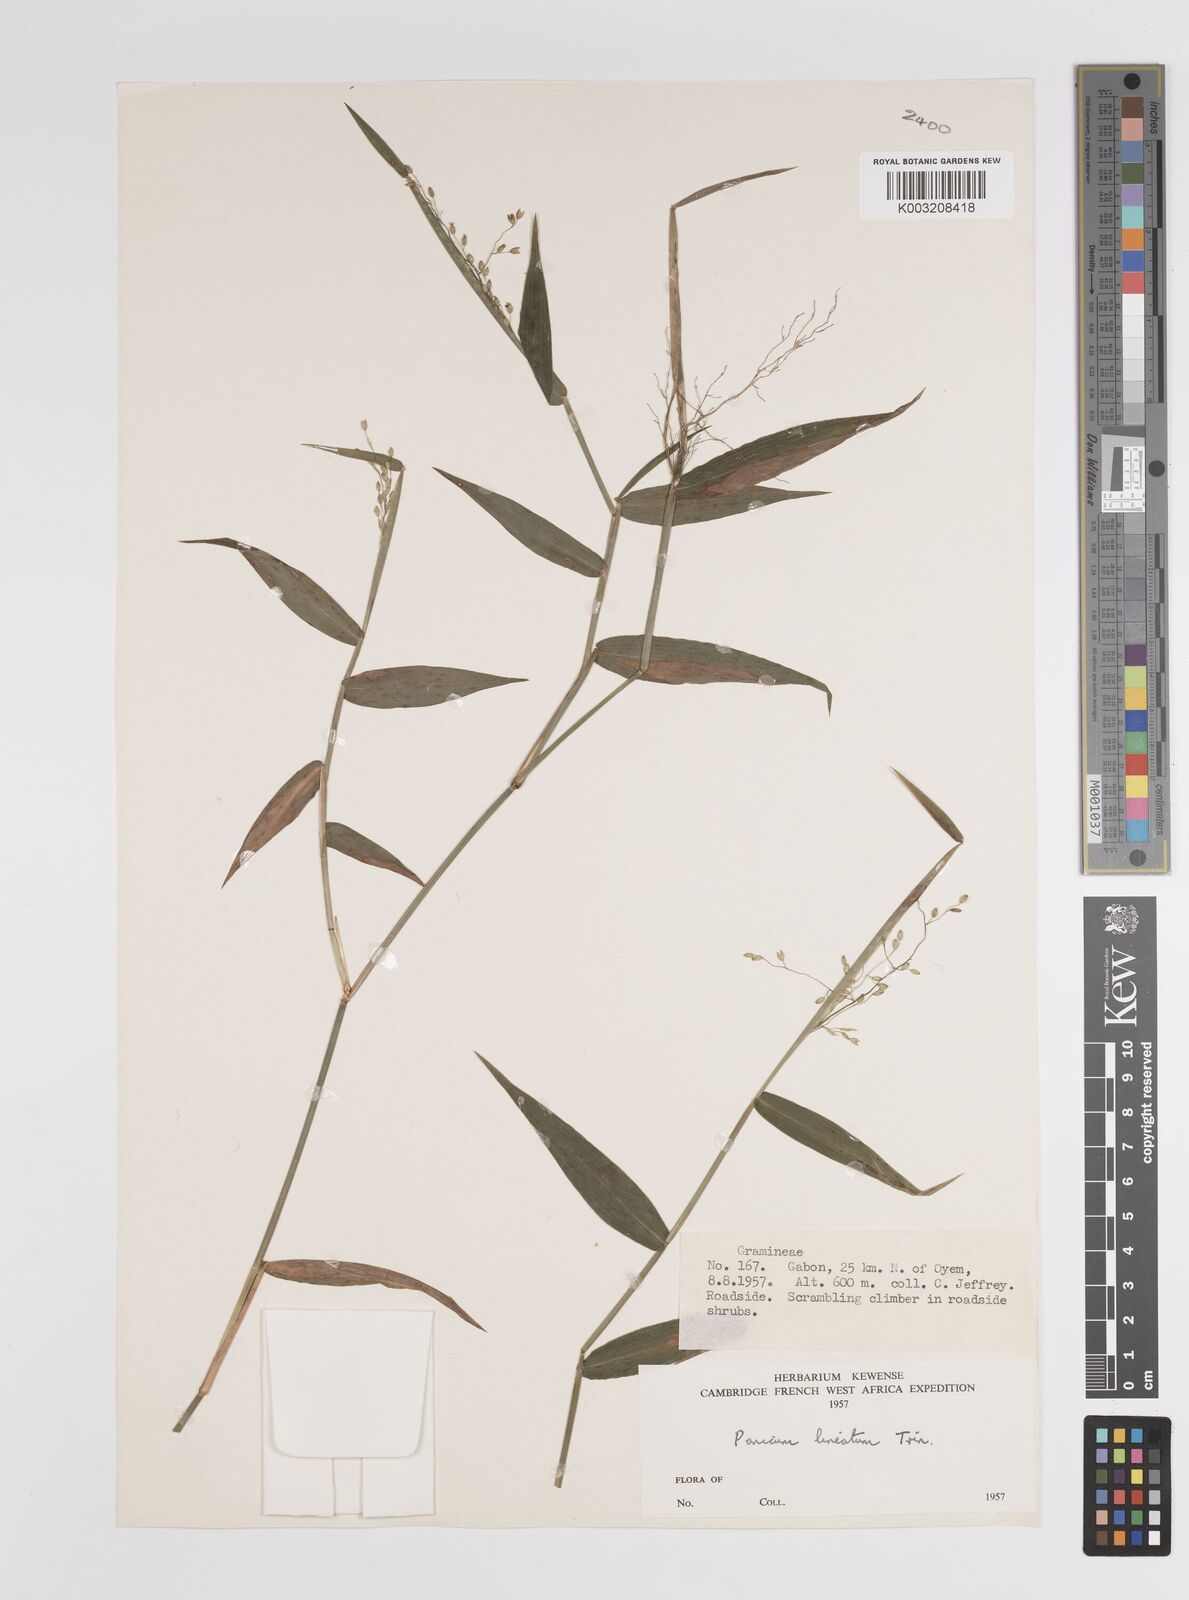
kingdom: Plantae
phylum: Tracheophyta
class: Liliopsida
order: Poales
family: Poaceae
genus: Adenochloa
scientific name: Adenochloa sadinii
